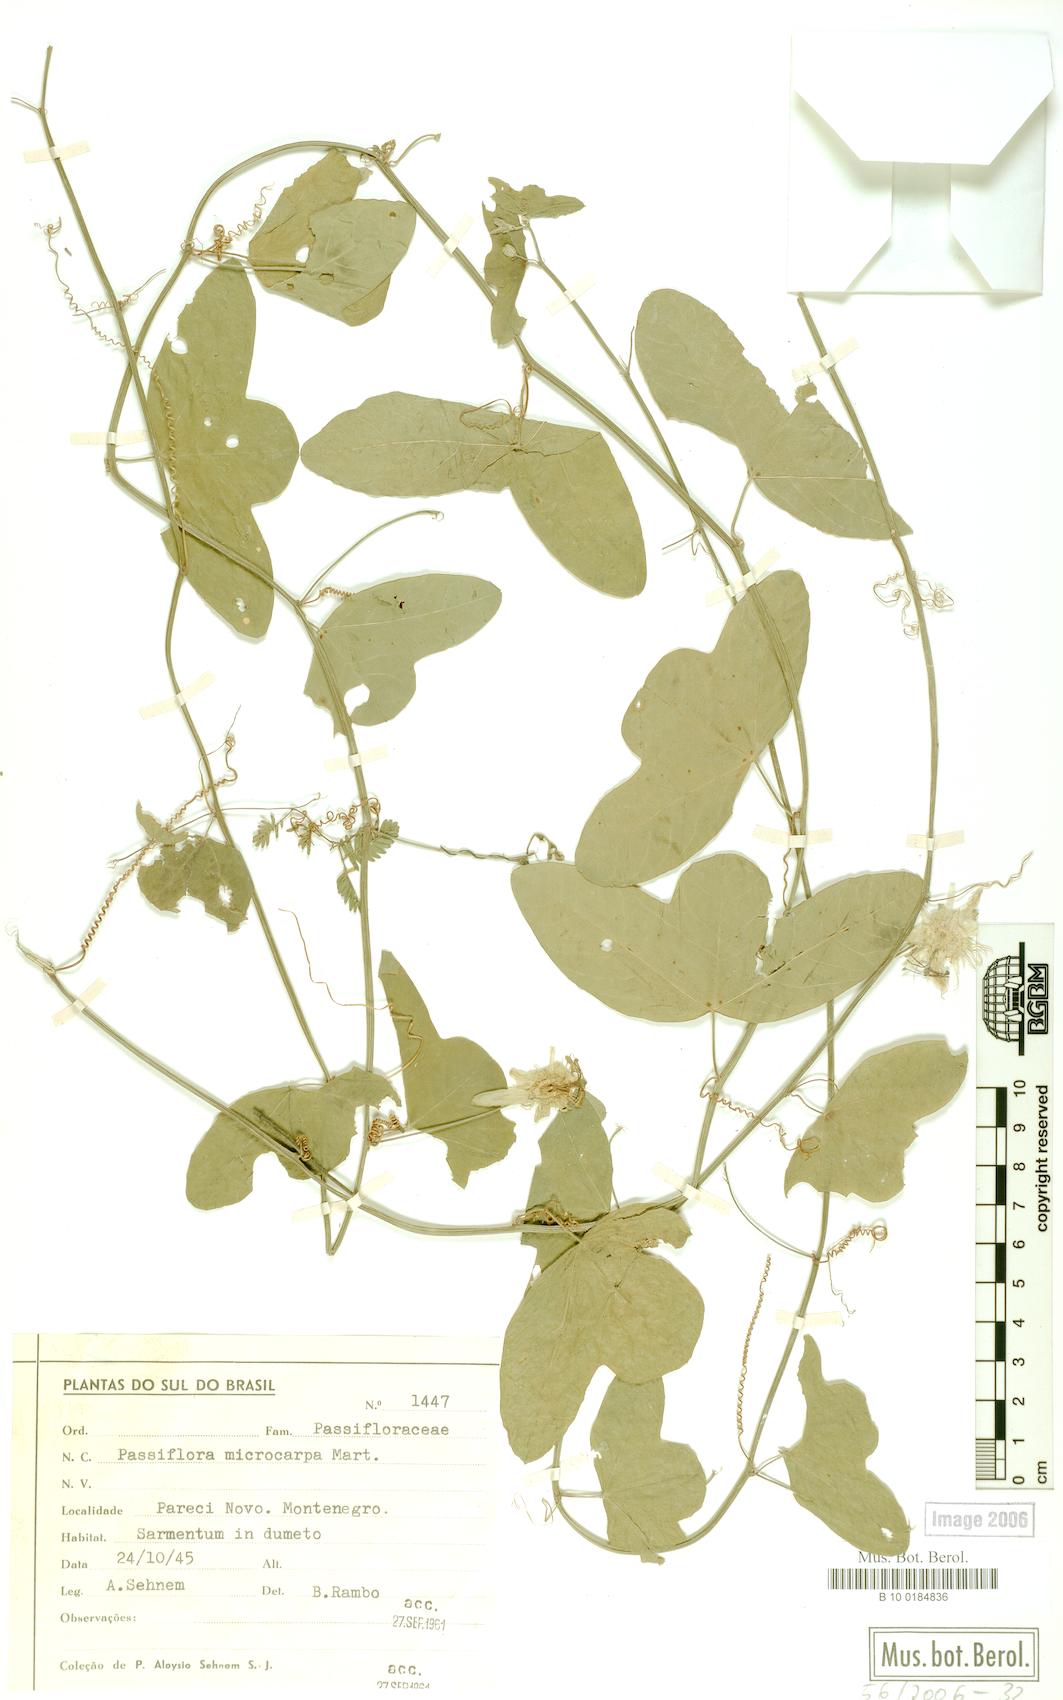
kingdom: Plantae
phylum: Tracheophyta
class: Magnoliopsida
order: Malpighiales
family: Passifloraceae
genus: Passiflora
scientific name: Passiflora misera
